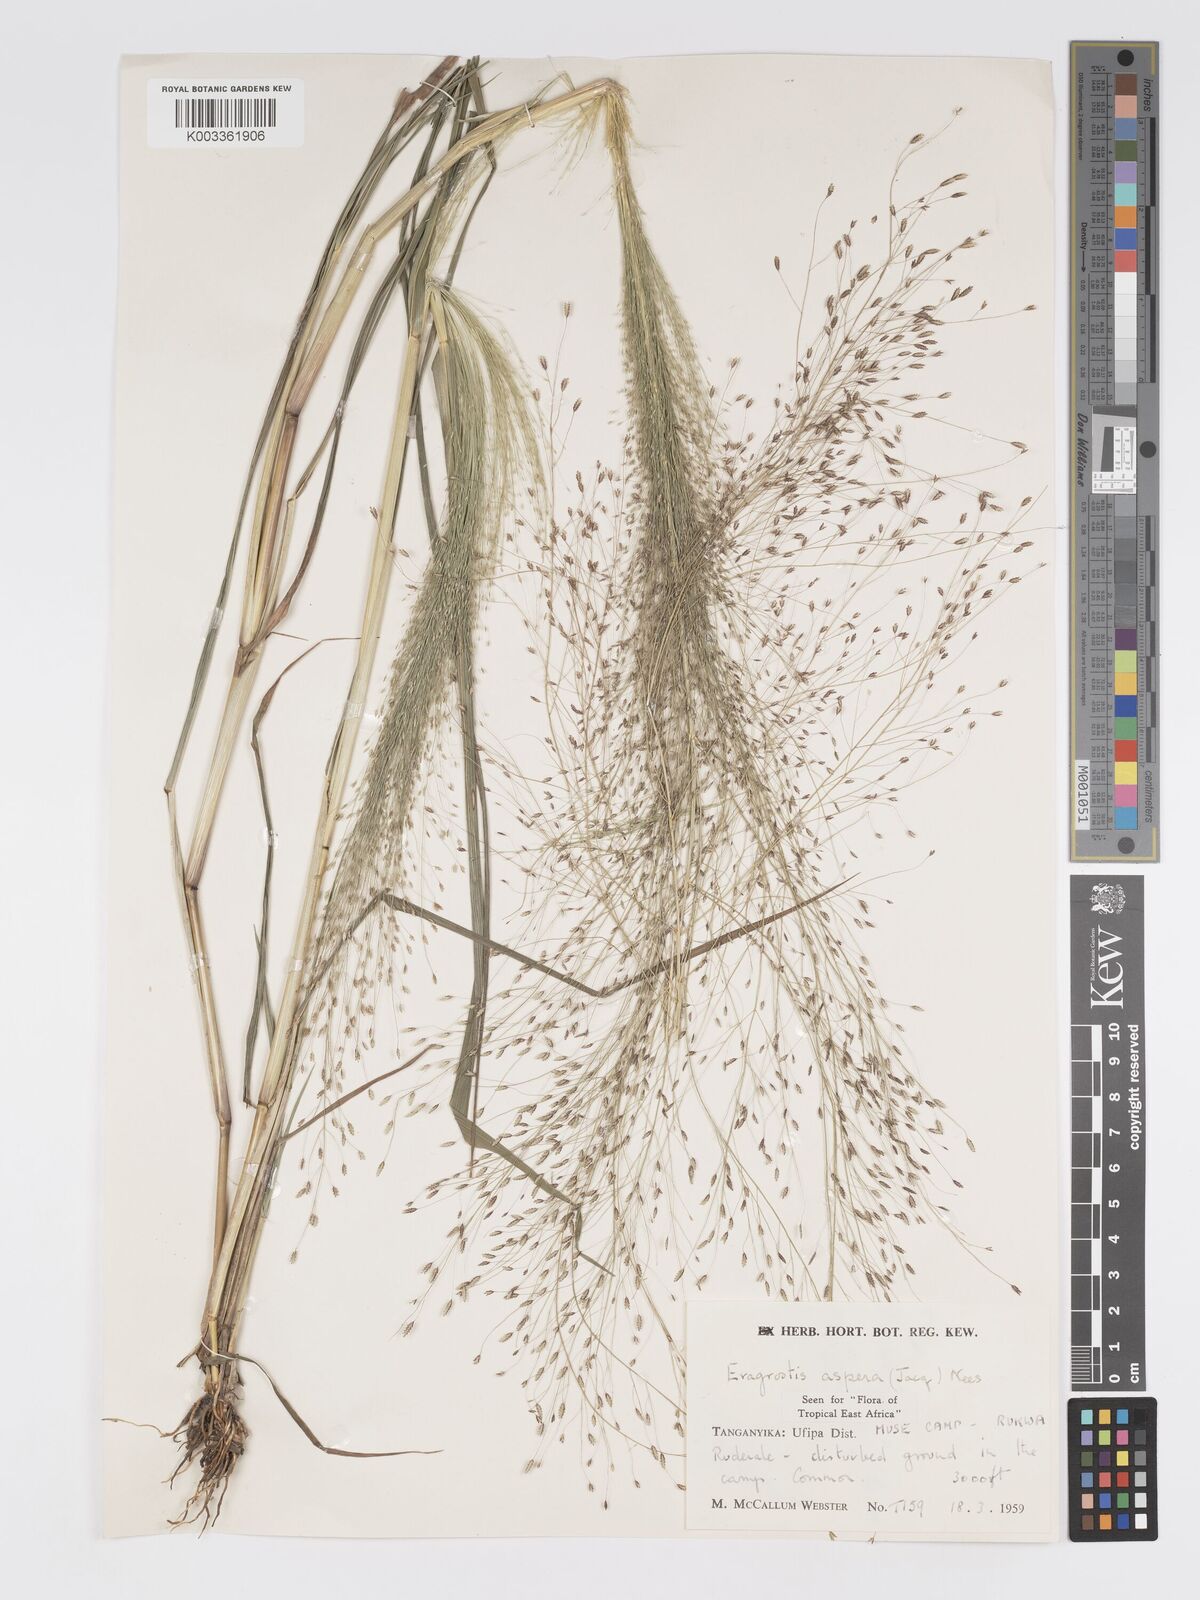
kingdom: Plantae
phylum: Tracheophyta
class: Liliopsida
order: Poales
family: Poaceae
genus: Eragrostis
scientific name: Eragrostis aspera
